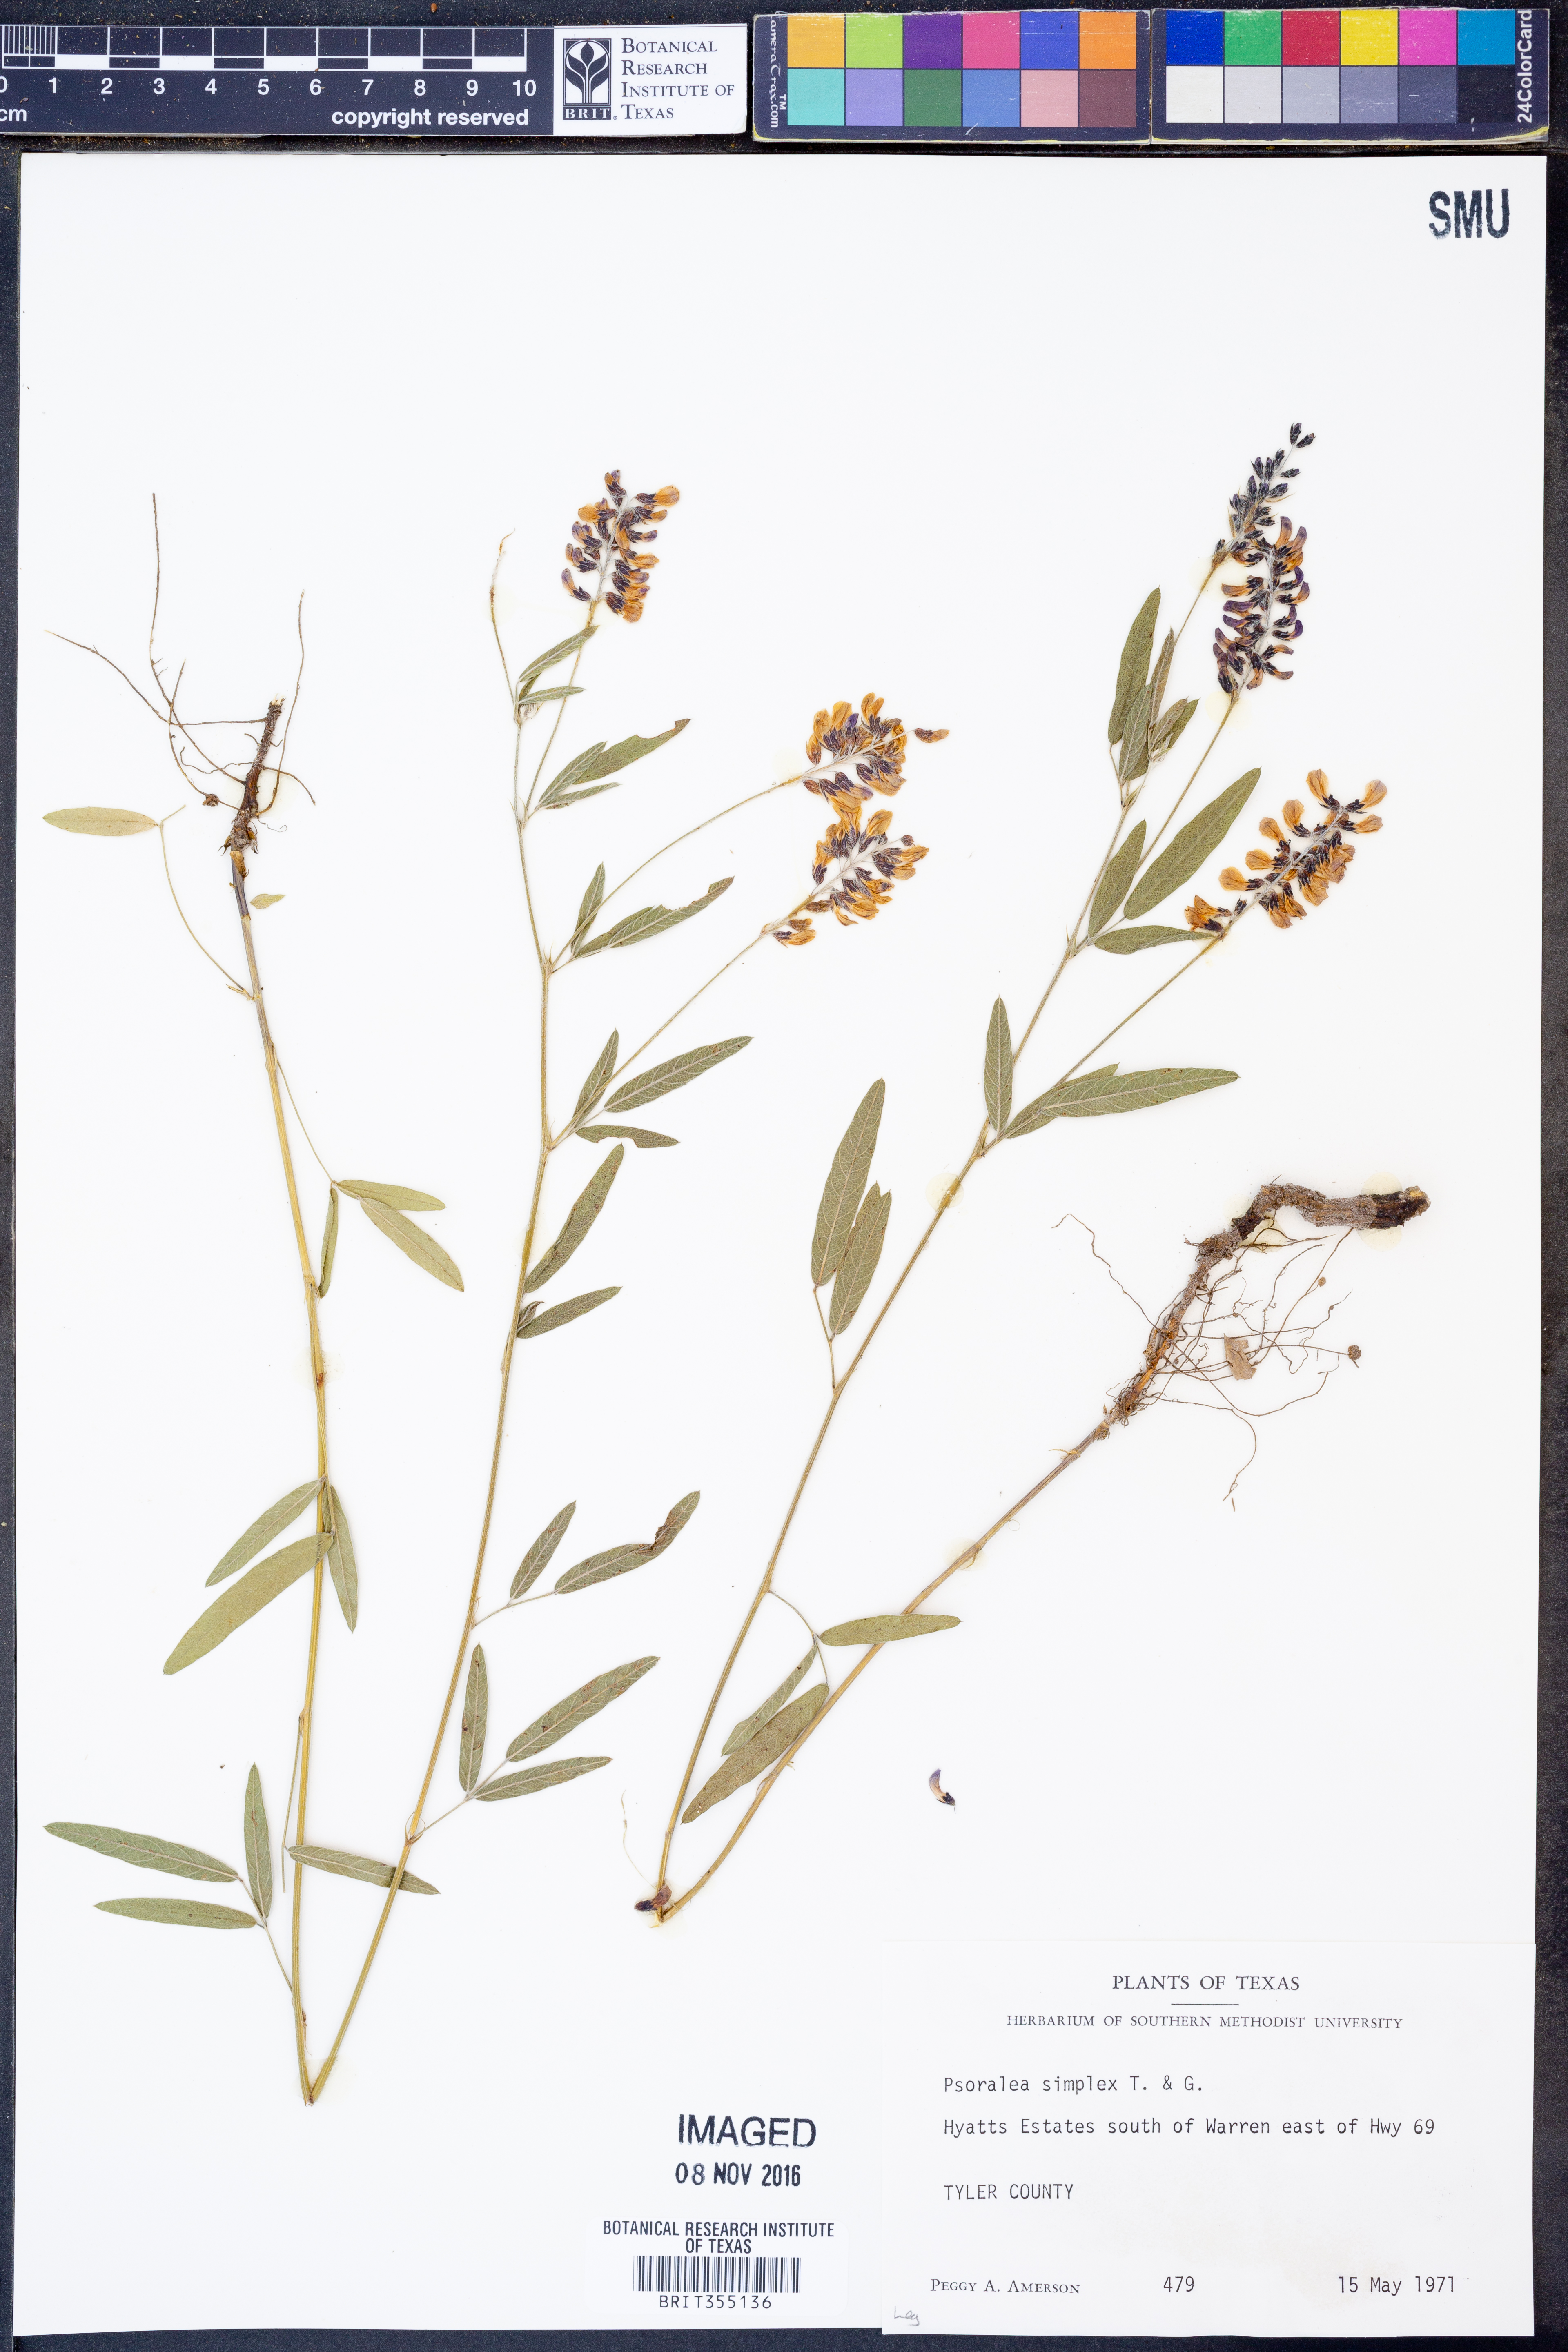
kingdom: Plantae
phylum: Tracheophyta
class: Magnoliopsida
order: Fabales
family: Fabaceae
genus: Orbexilum
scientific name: Orbexilum simplex
